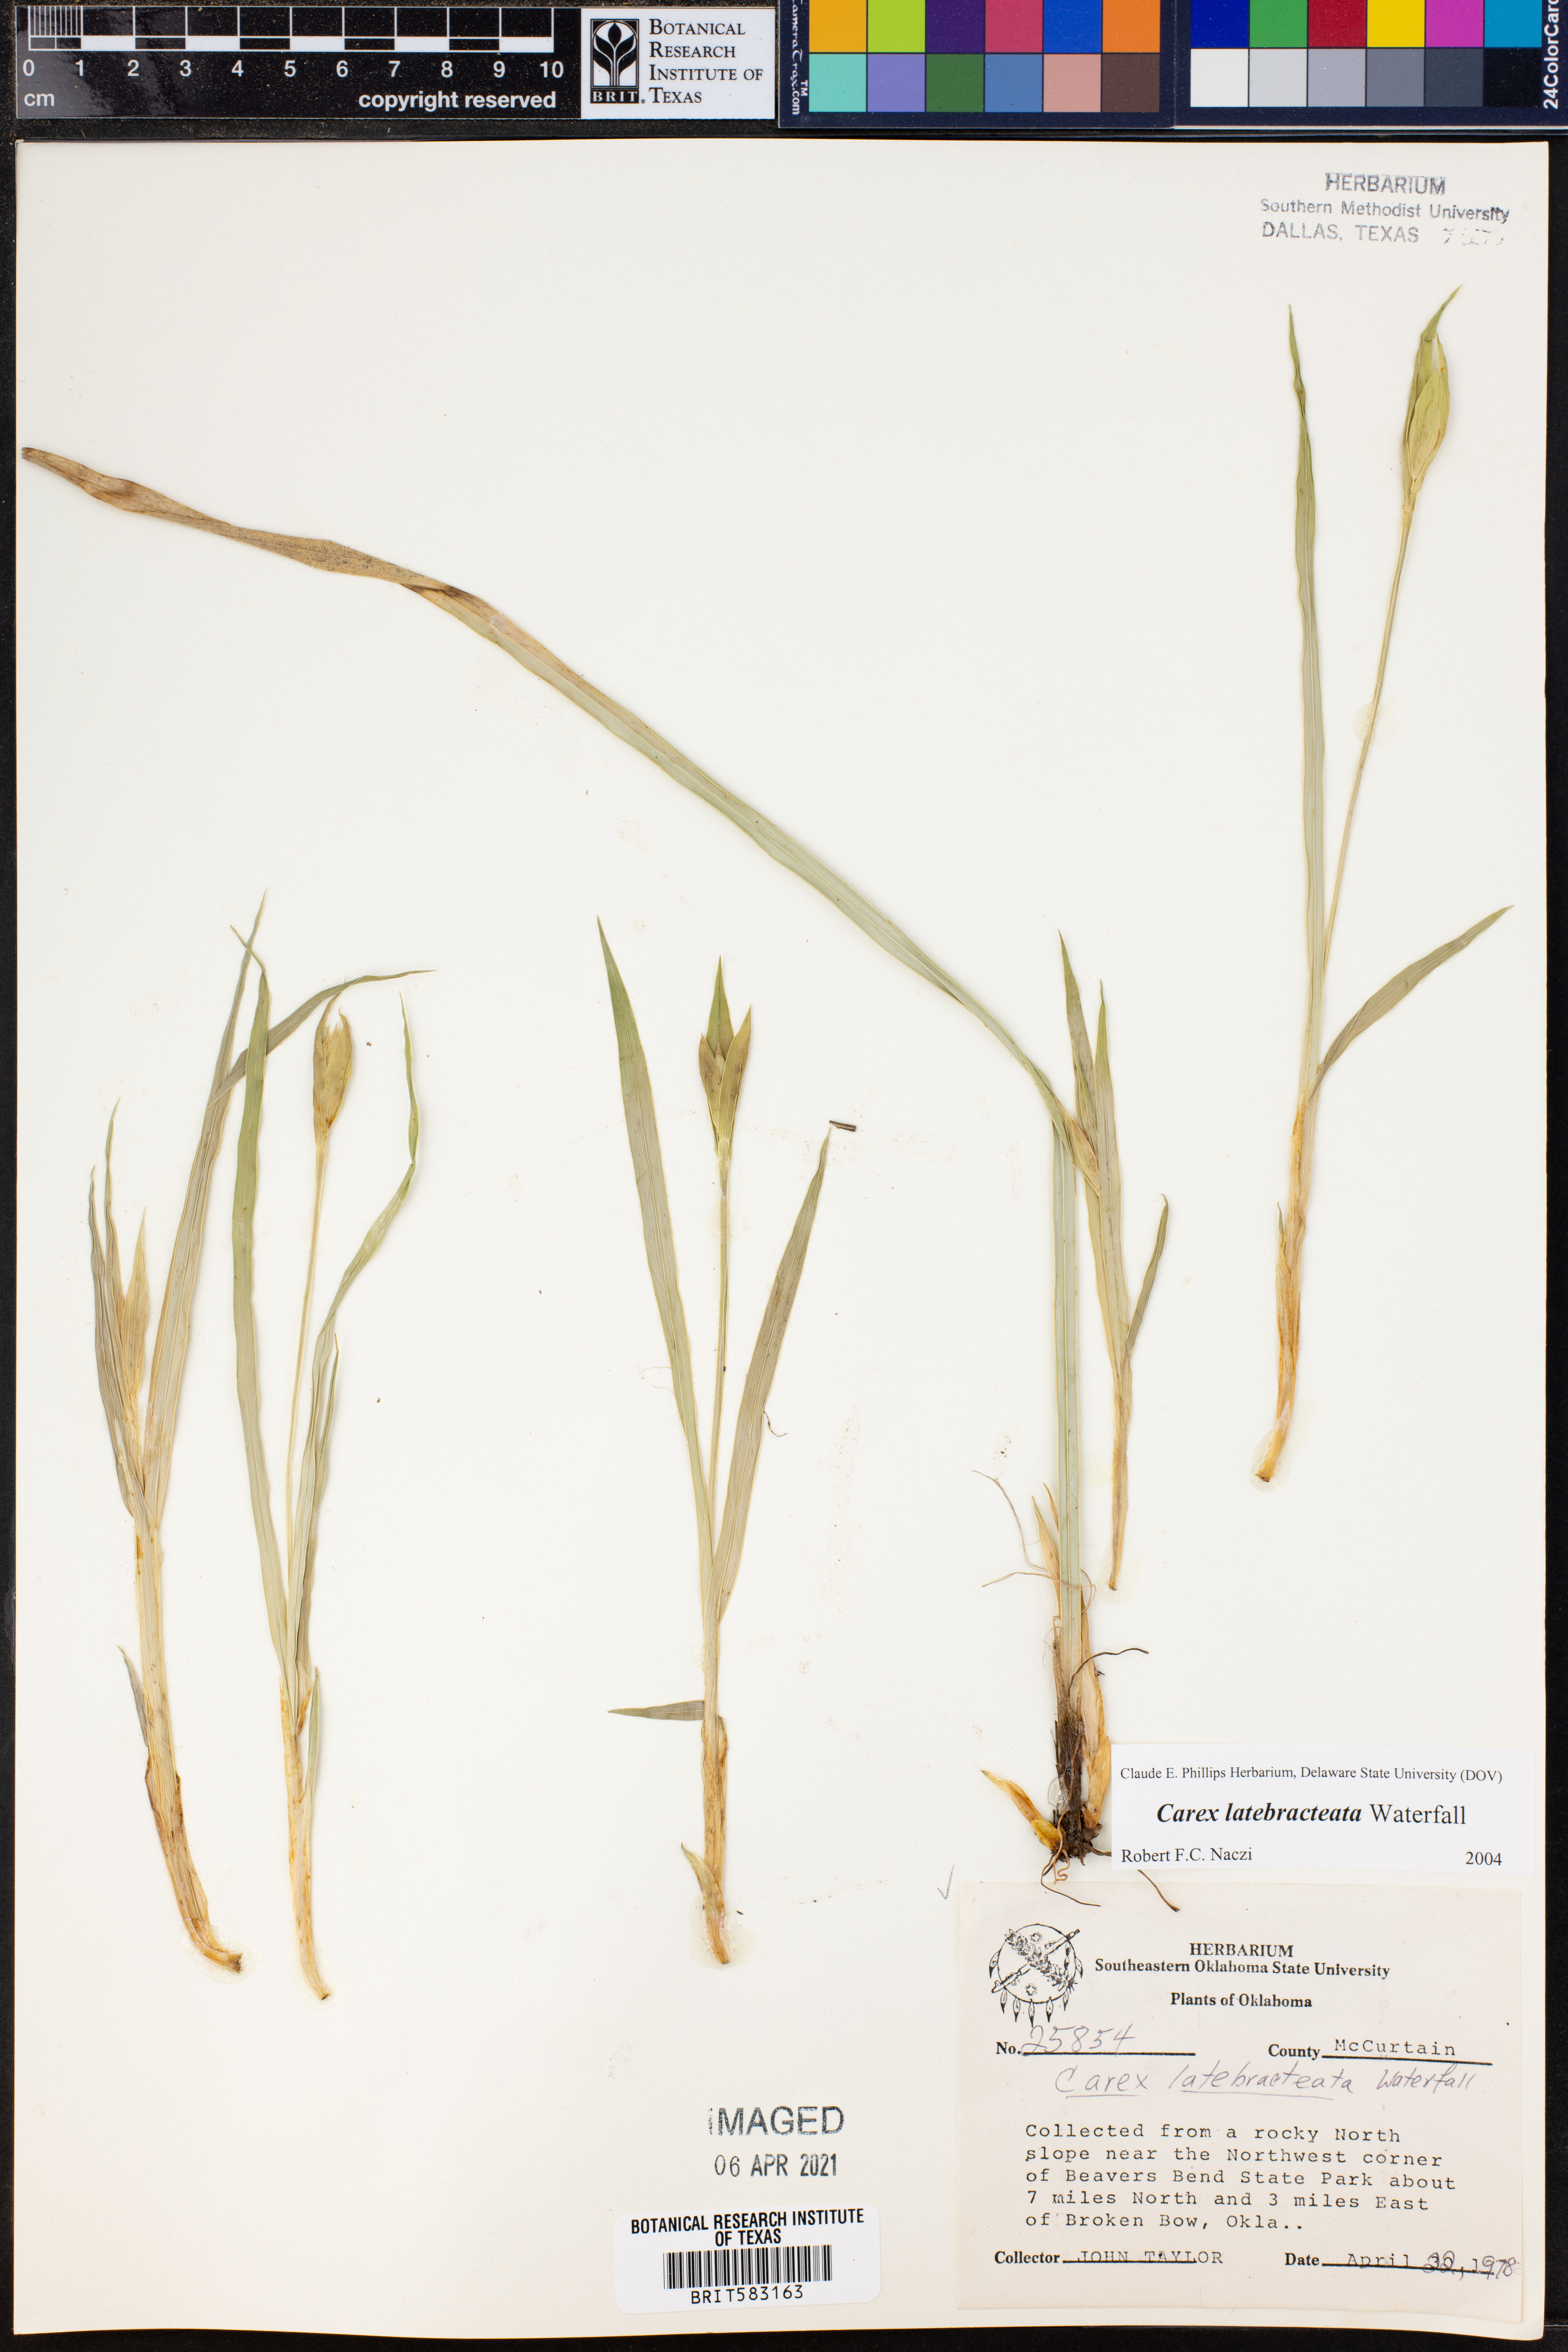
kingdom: Plantae
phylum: Tracheophyta
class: Liliopsida
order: Poales
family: Cyperaceae
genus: Carex
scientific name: Carex latebracteata
